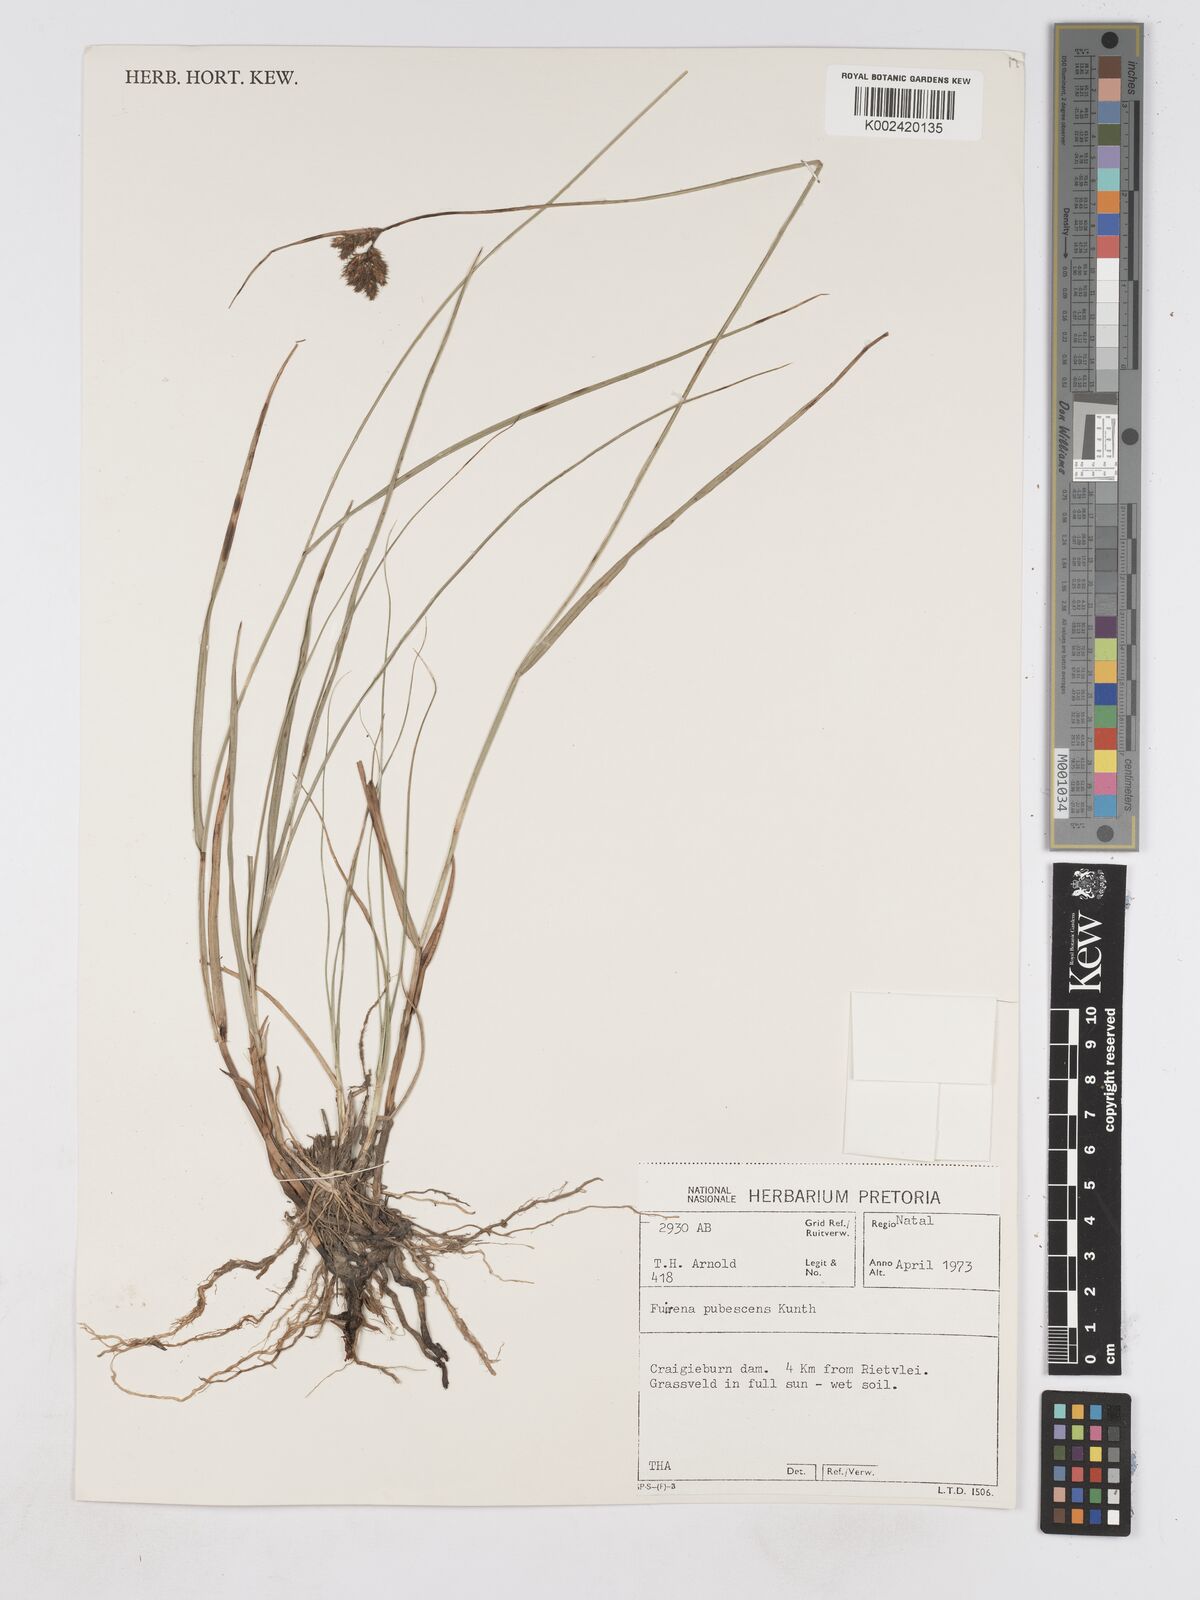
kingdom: Plantae
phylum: Tracheophyta
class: Liliopsida
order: Poales
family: Cyperaceae
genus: Fuirena
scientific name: Fuirena pubescens
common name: Hairy sedge
